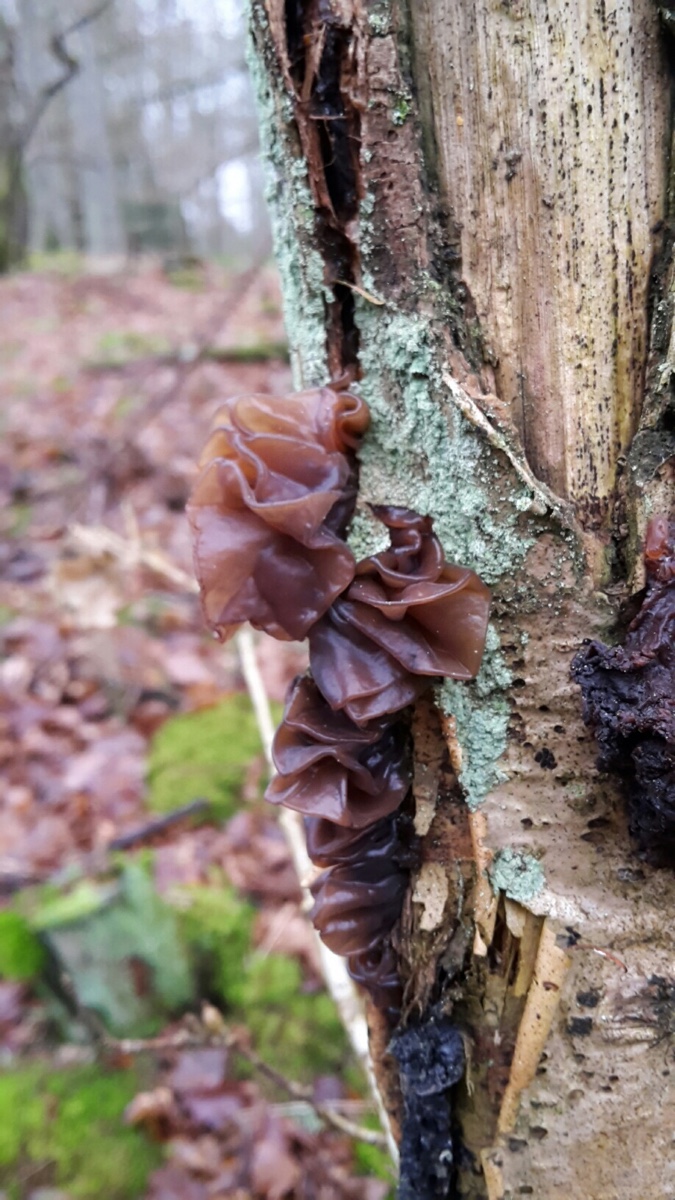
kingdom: Fungi
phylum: Basidiomycota
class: Tremellomycetes
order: Tremellales
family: Tremellaceae
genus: Phaeotremella
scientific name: Phaeotremella frondosa
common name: kæmpe-bævresvamp
